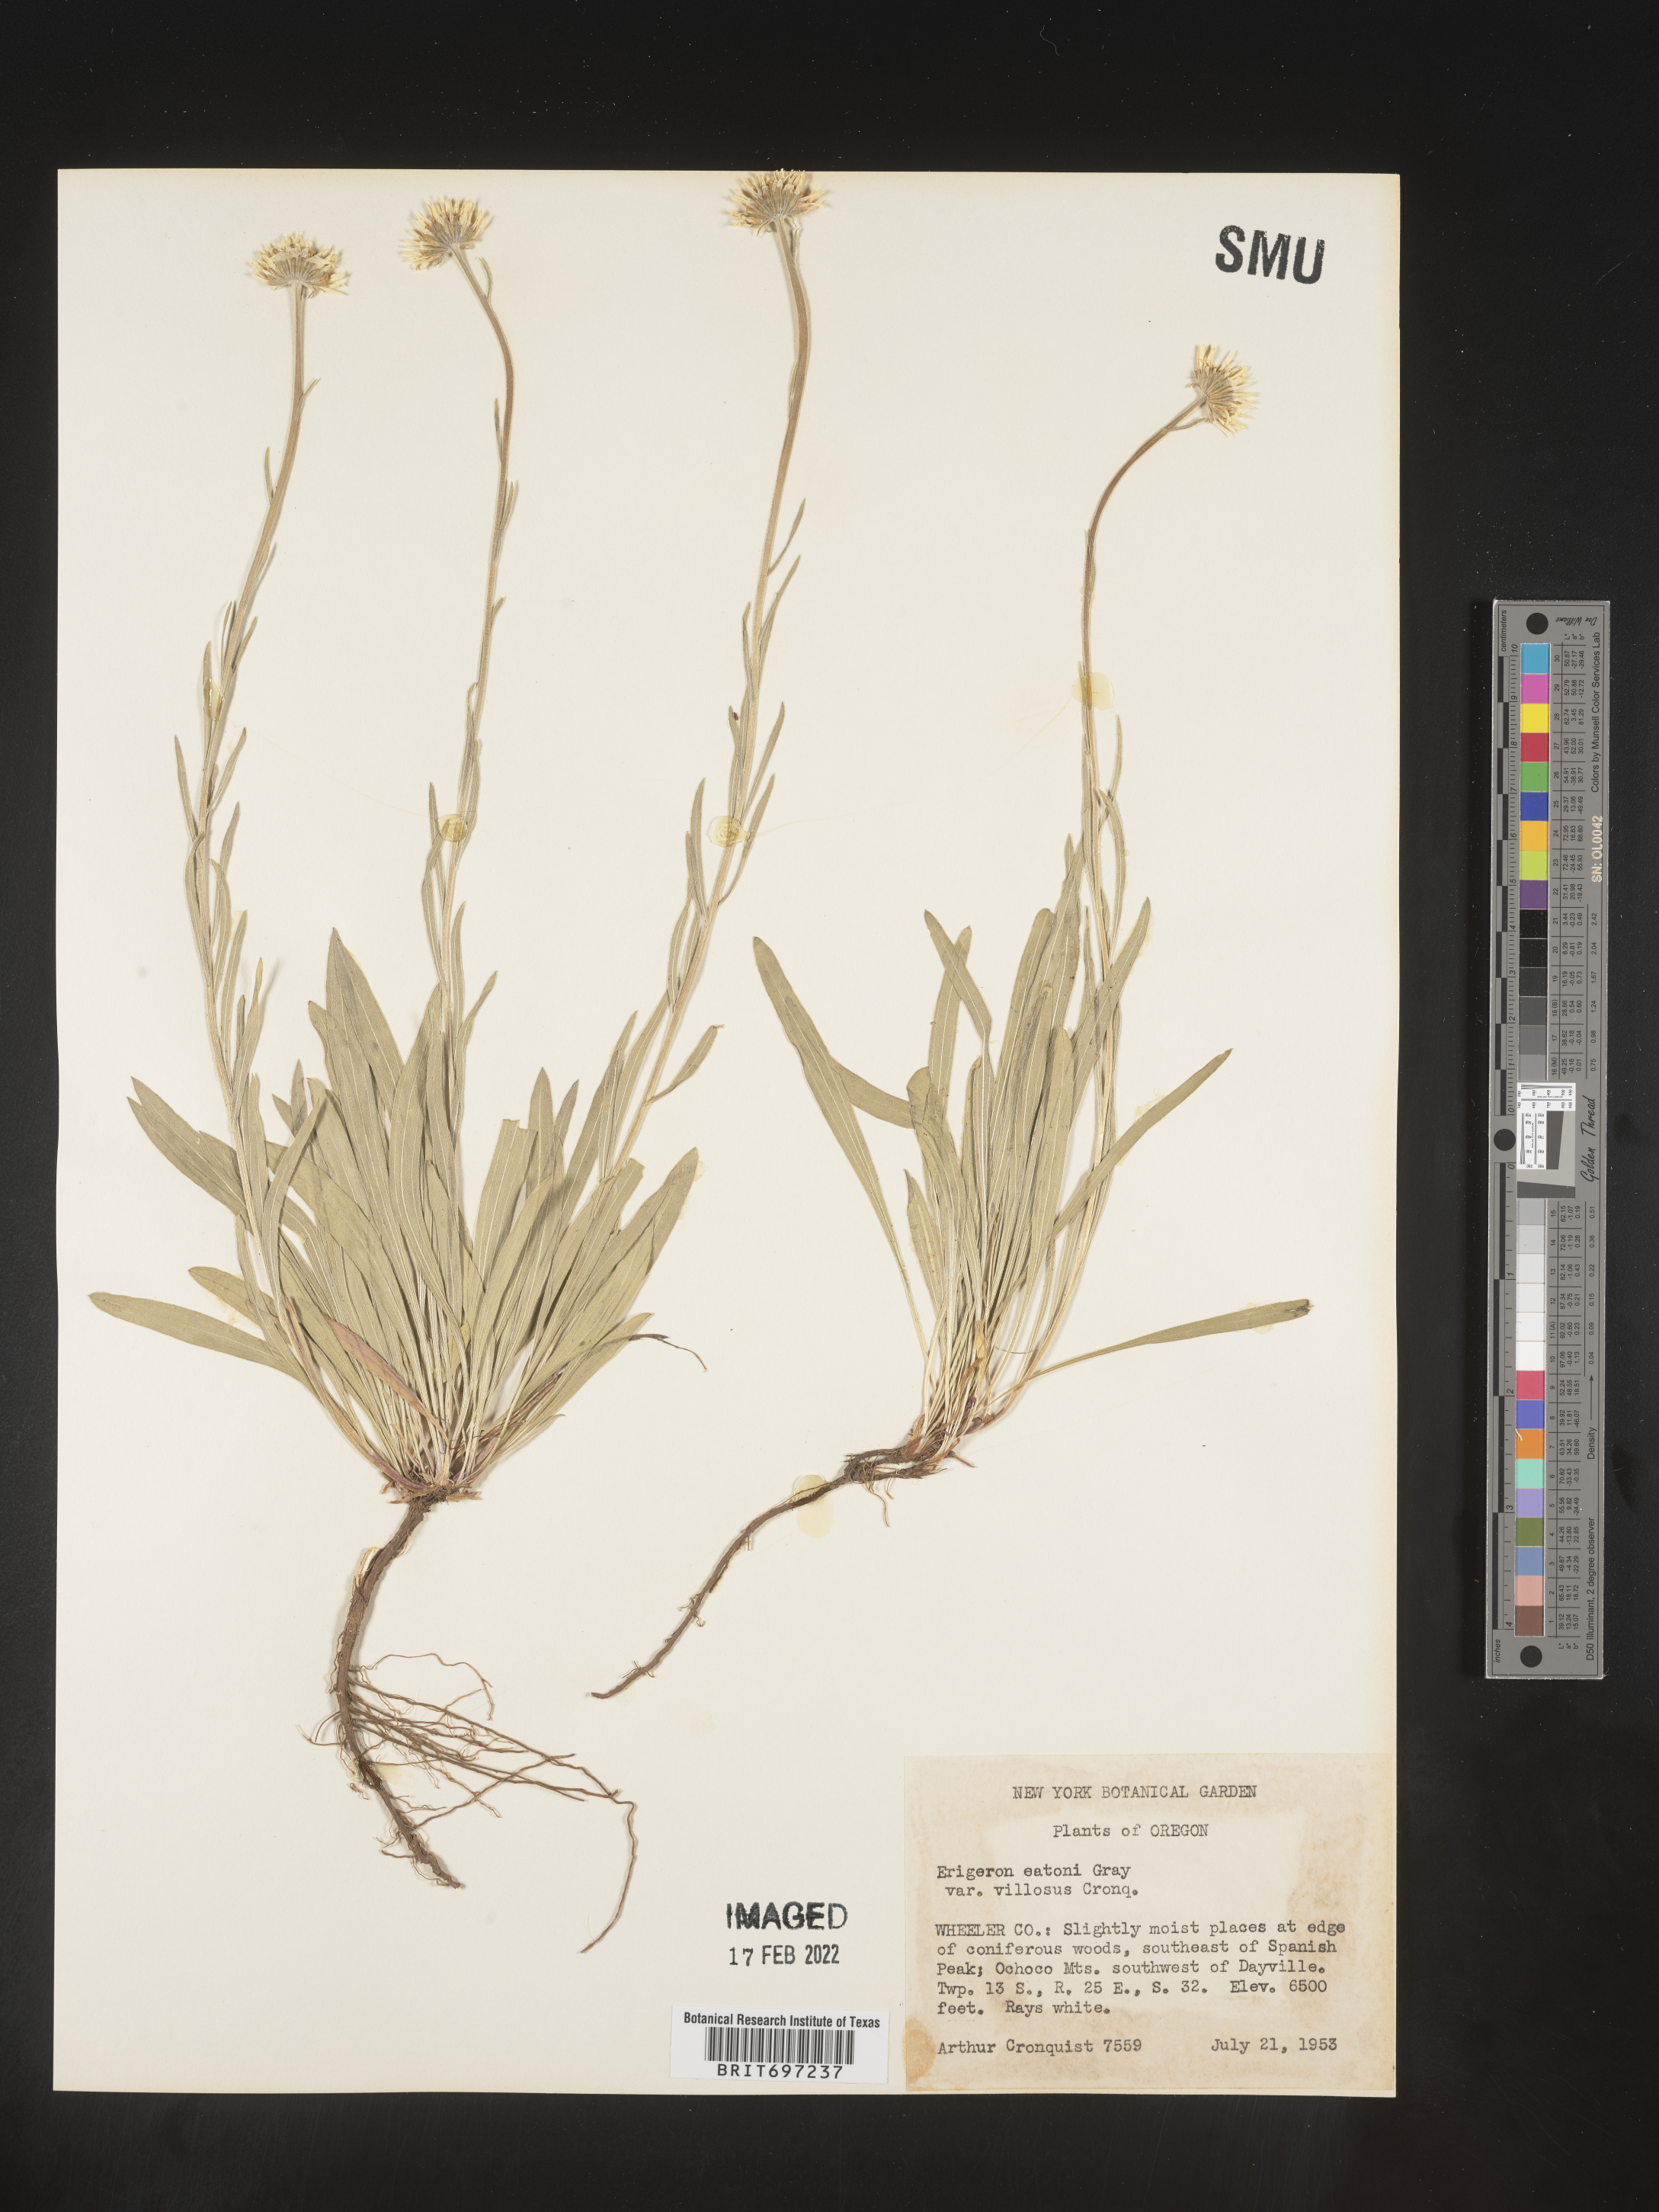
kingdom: Plantae
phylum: Tracheophyta
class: Magnoliopsida
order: Asterales
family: Asteraceae
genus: Erigeron
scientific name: Erigeron eatonii
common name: Eaton's fleabane
